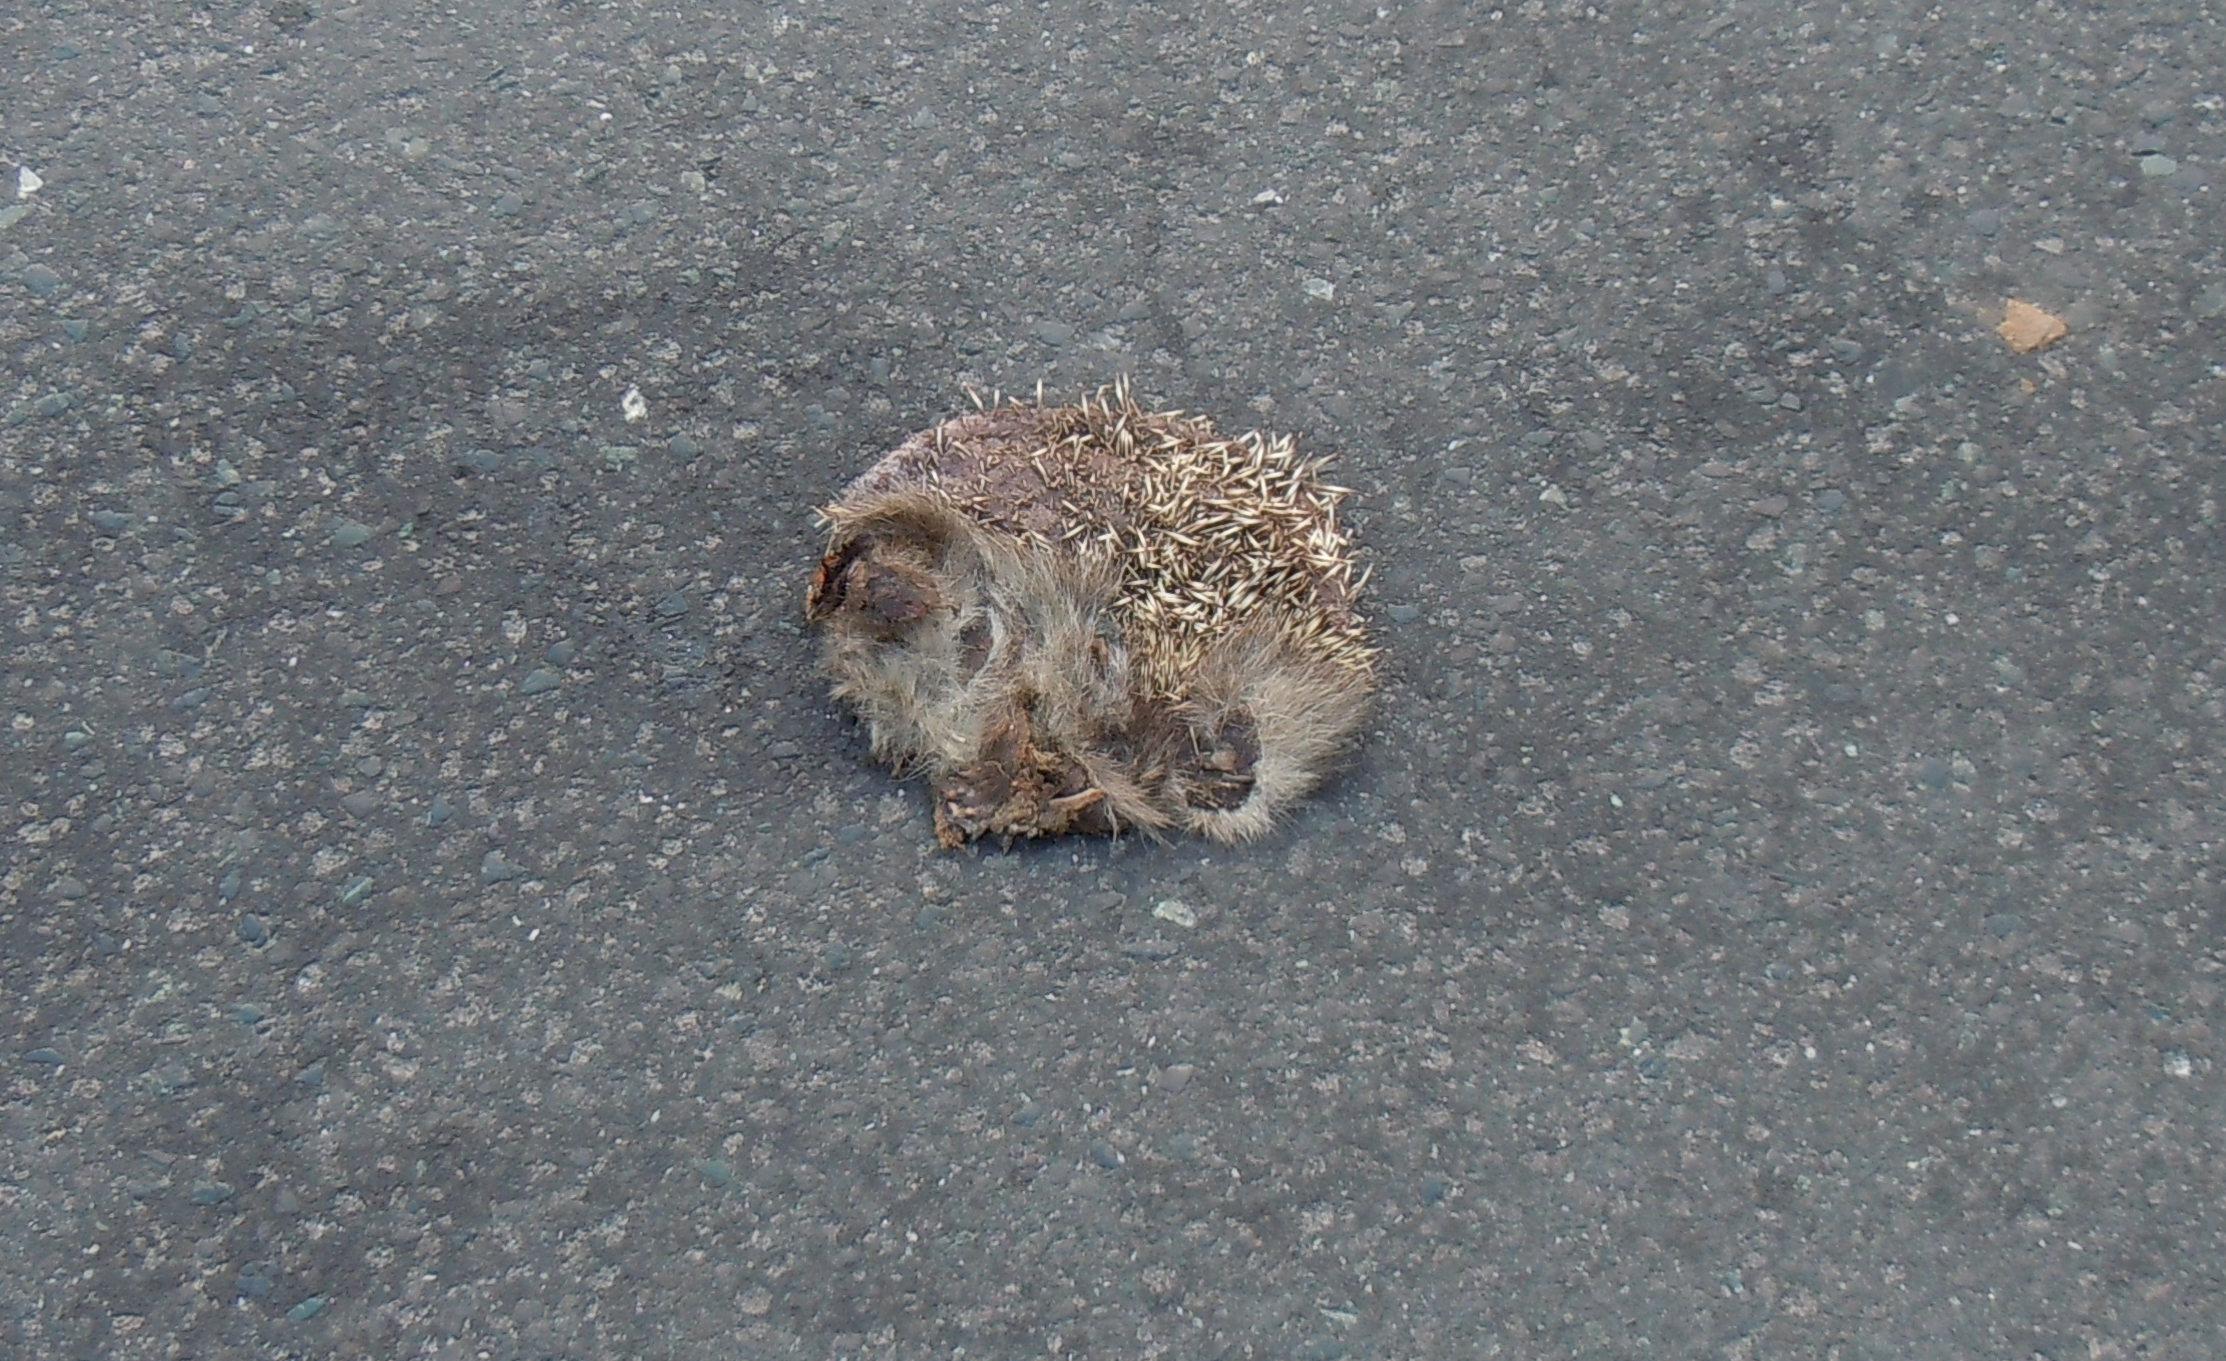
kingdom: Animalia
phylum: Chordata
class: Mammalia
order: Erinaceomorpha
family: Erinaceidae
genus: Erinaceus
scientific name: Erinaceus
